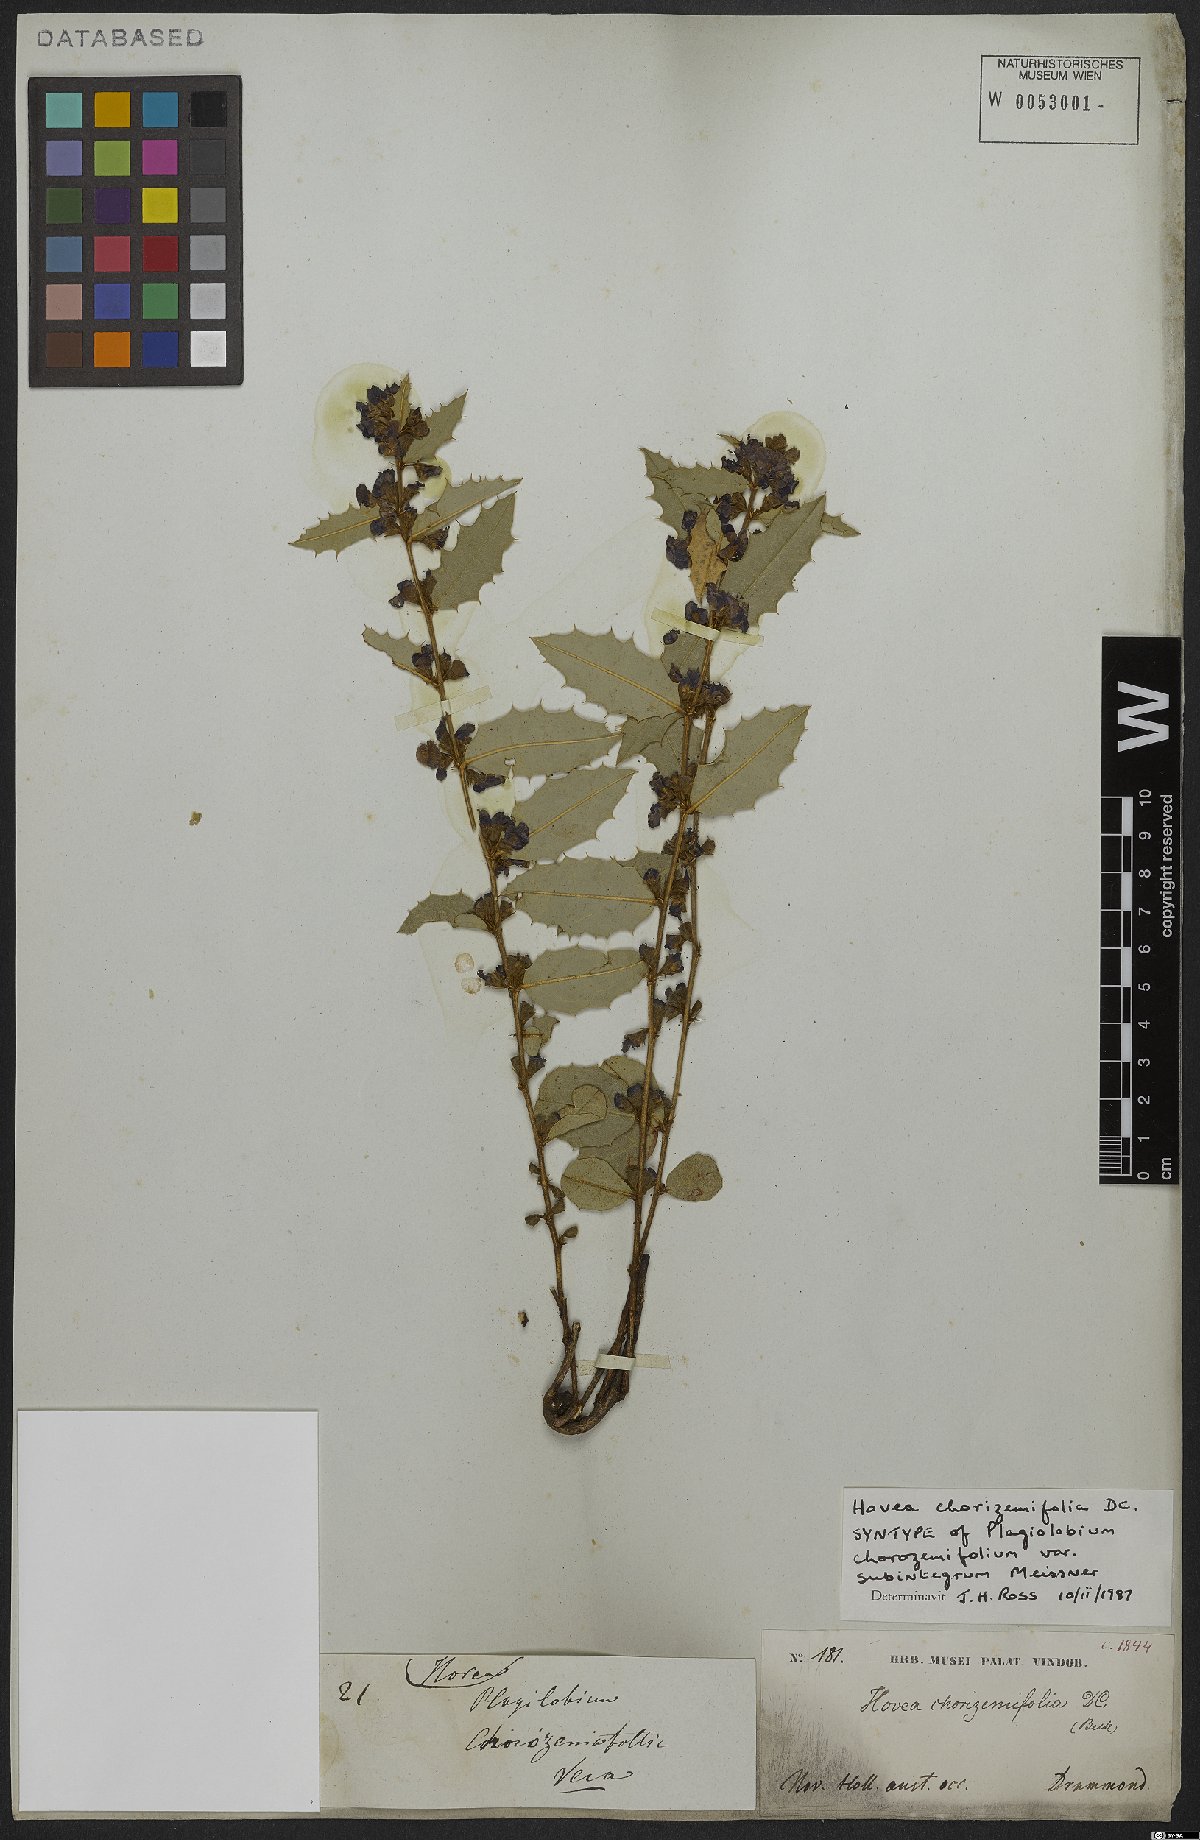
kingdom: Plantae
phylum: Tracheophyta
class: Magnoliopsida
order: Fabales
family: Fabaceae
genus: Hovea
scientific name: Hovea chorizemifolia
